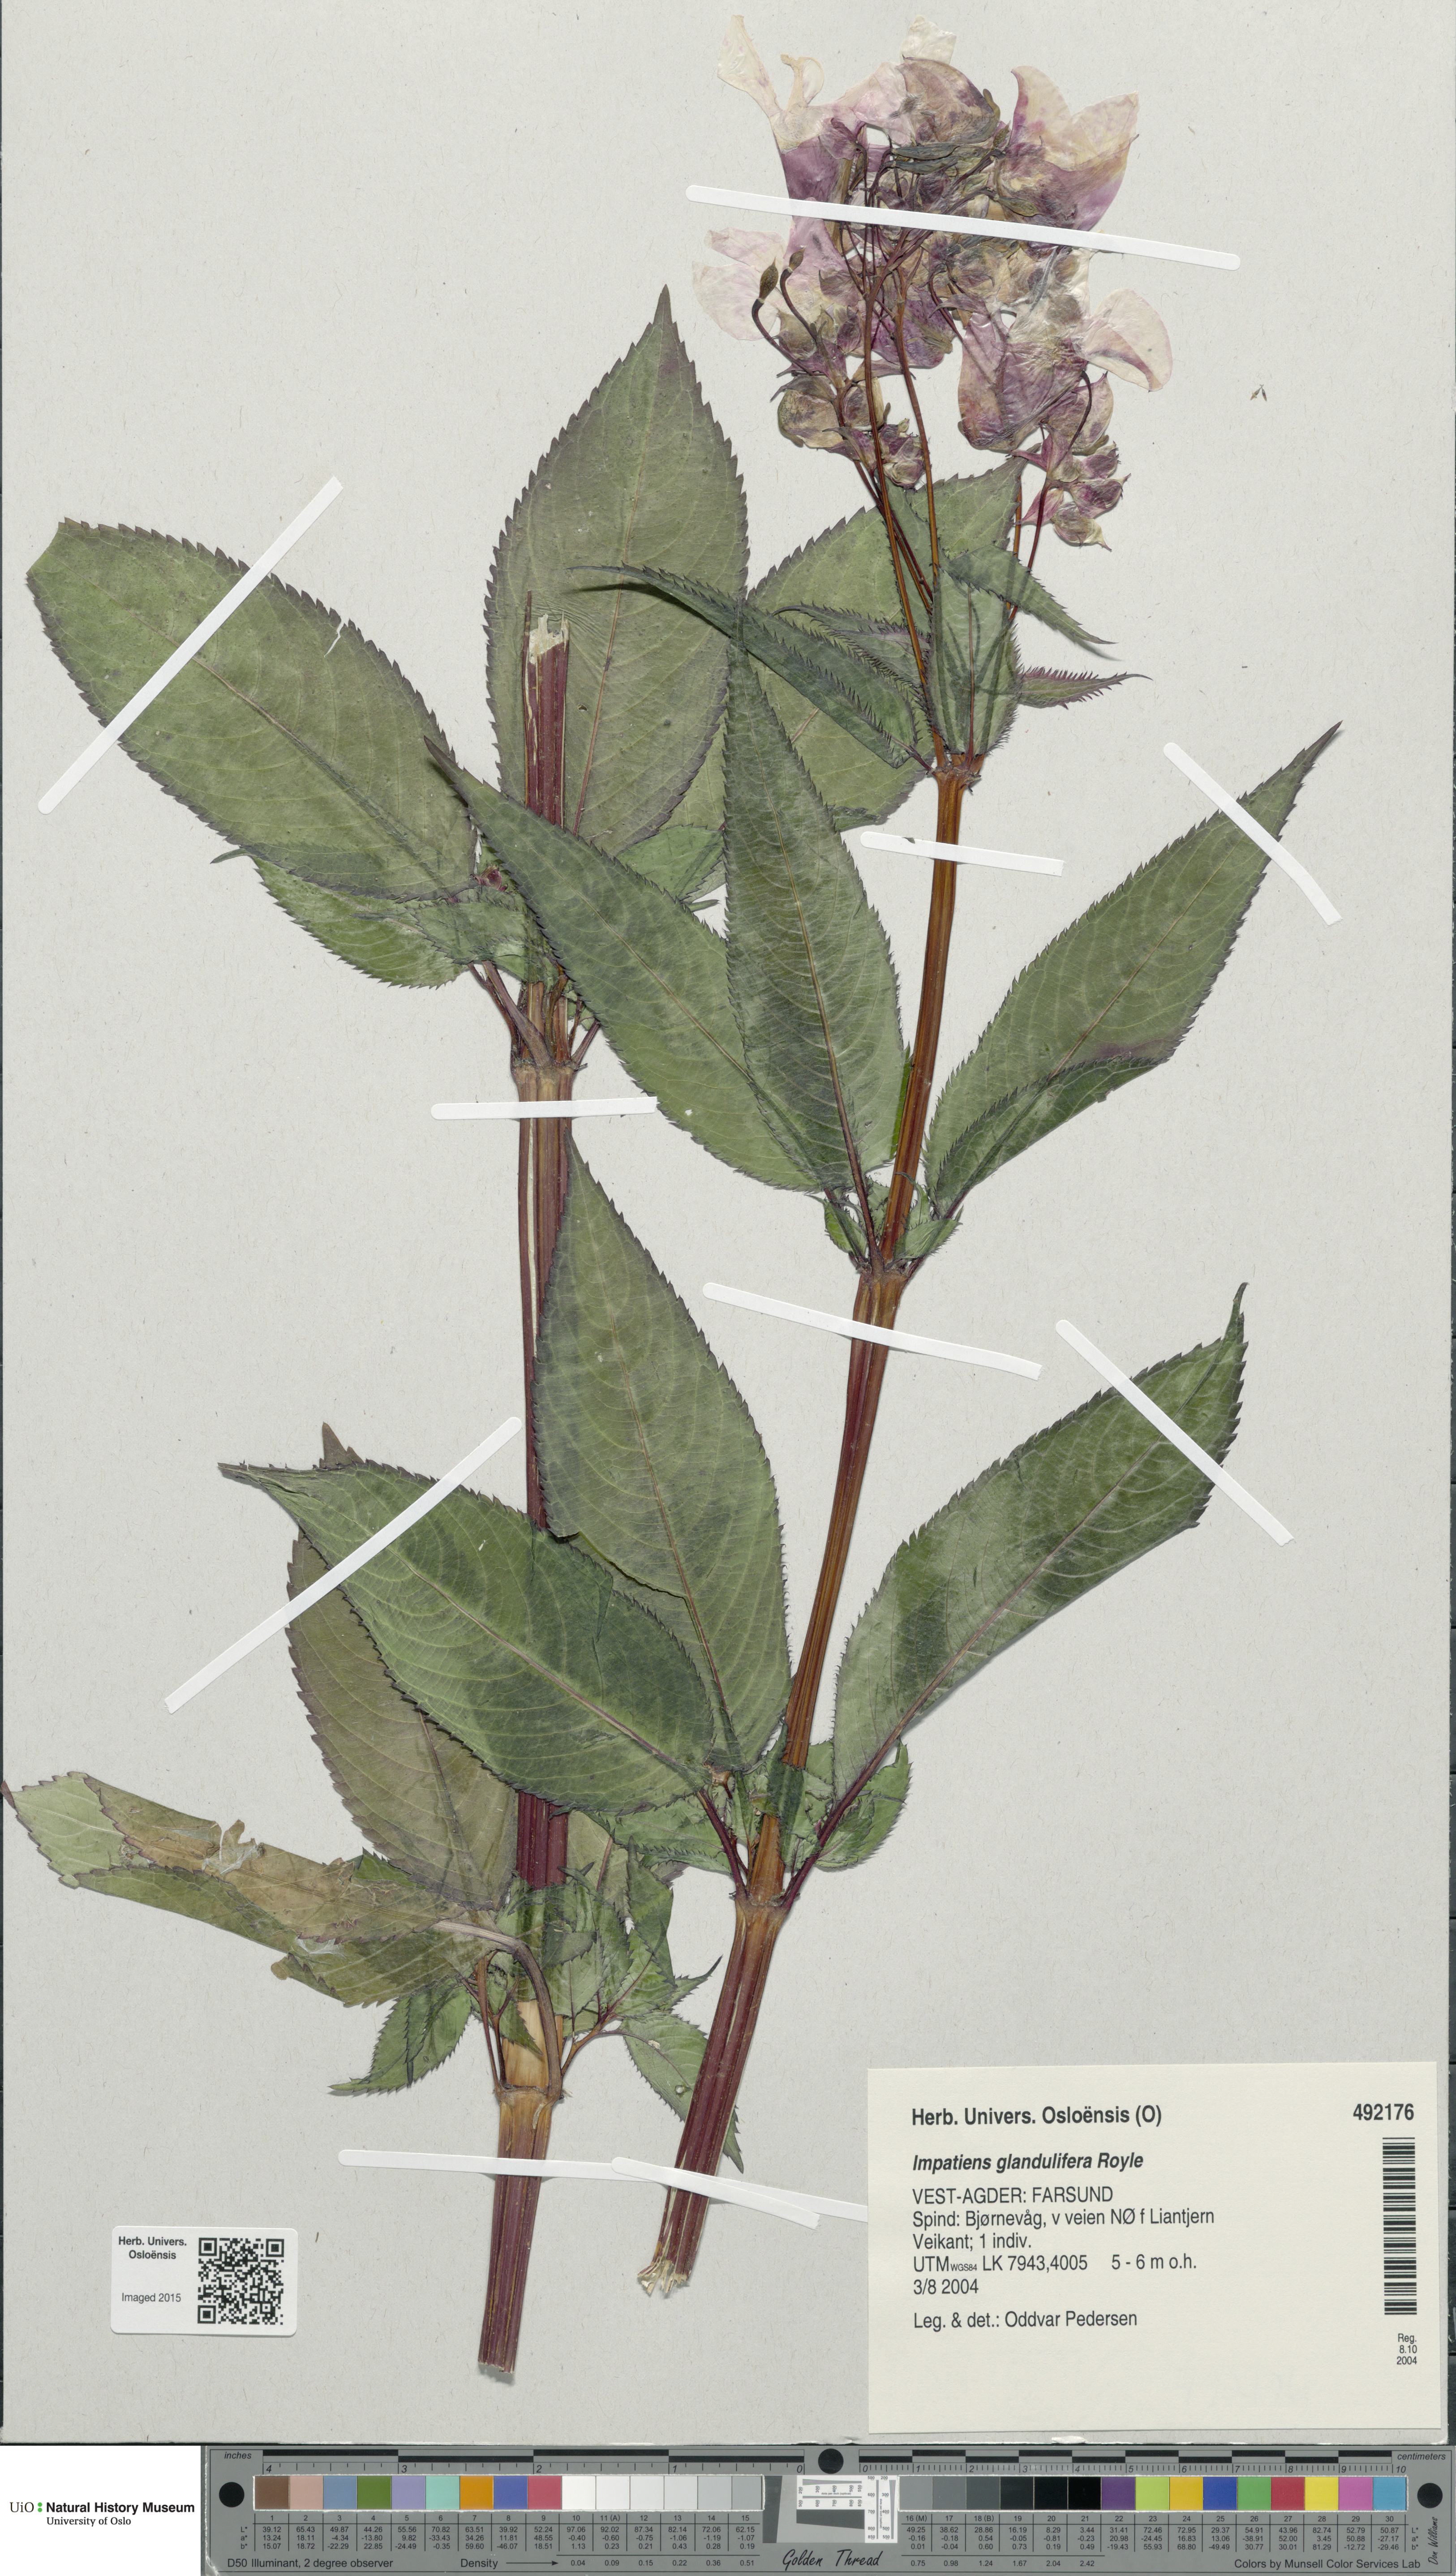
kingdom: Plantae
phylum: Tracheophyta
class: Magnoliopsida
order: Ericales
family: Balsaminaceae
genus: Impatiens
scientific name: Impatiens glandulifera
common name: Himalayan balsam
